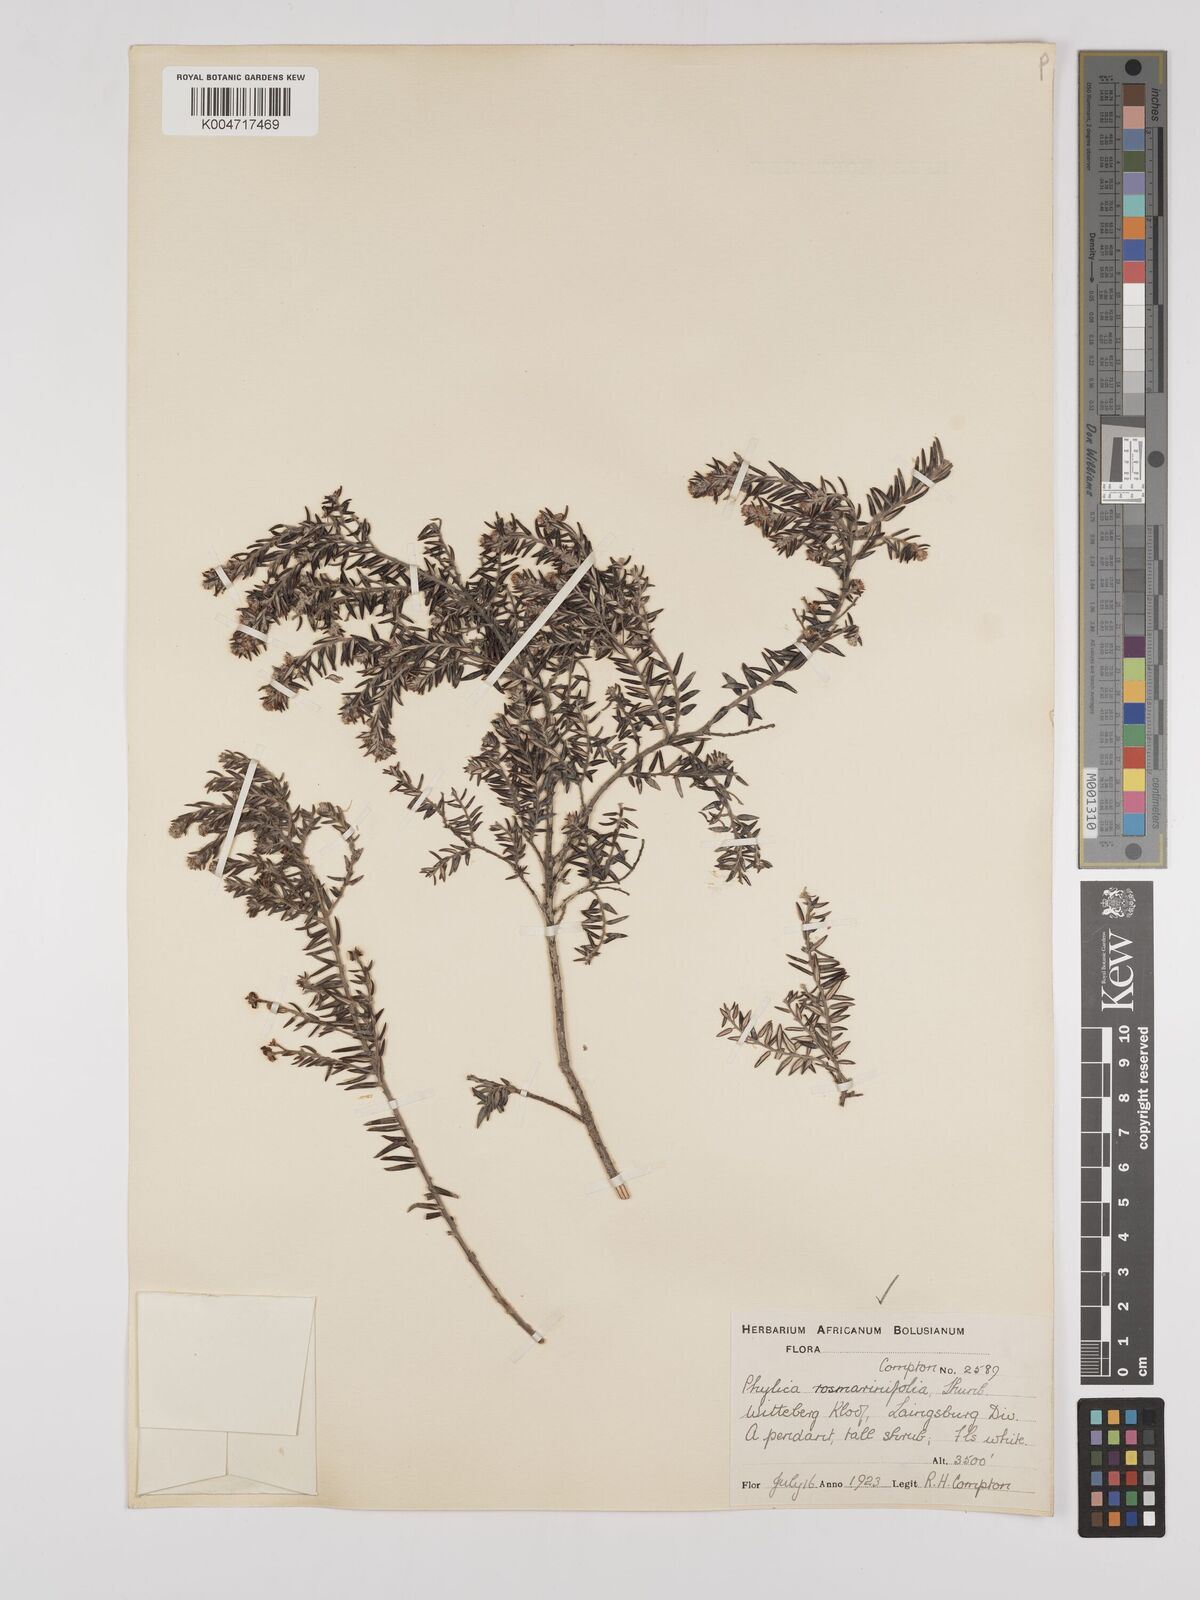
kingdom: Plantae
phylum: Tracheophyta
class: Magnoliopsida
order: Rosales
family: Rhamnaceae
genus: Phylica
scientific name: Phylica paniculata
